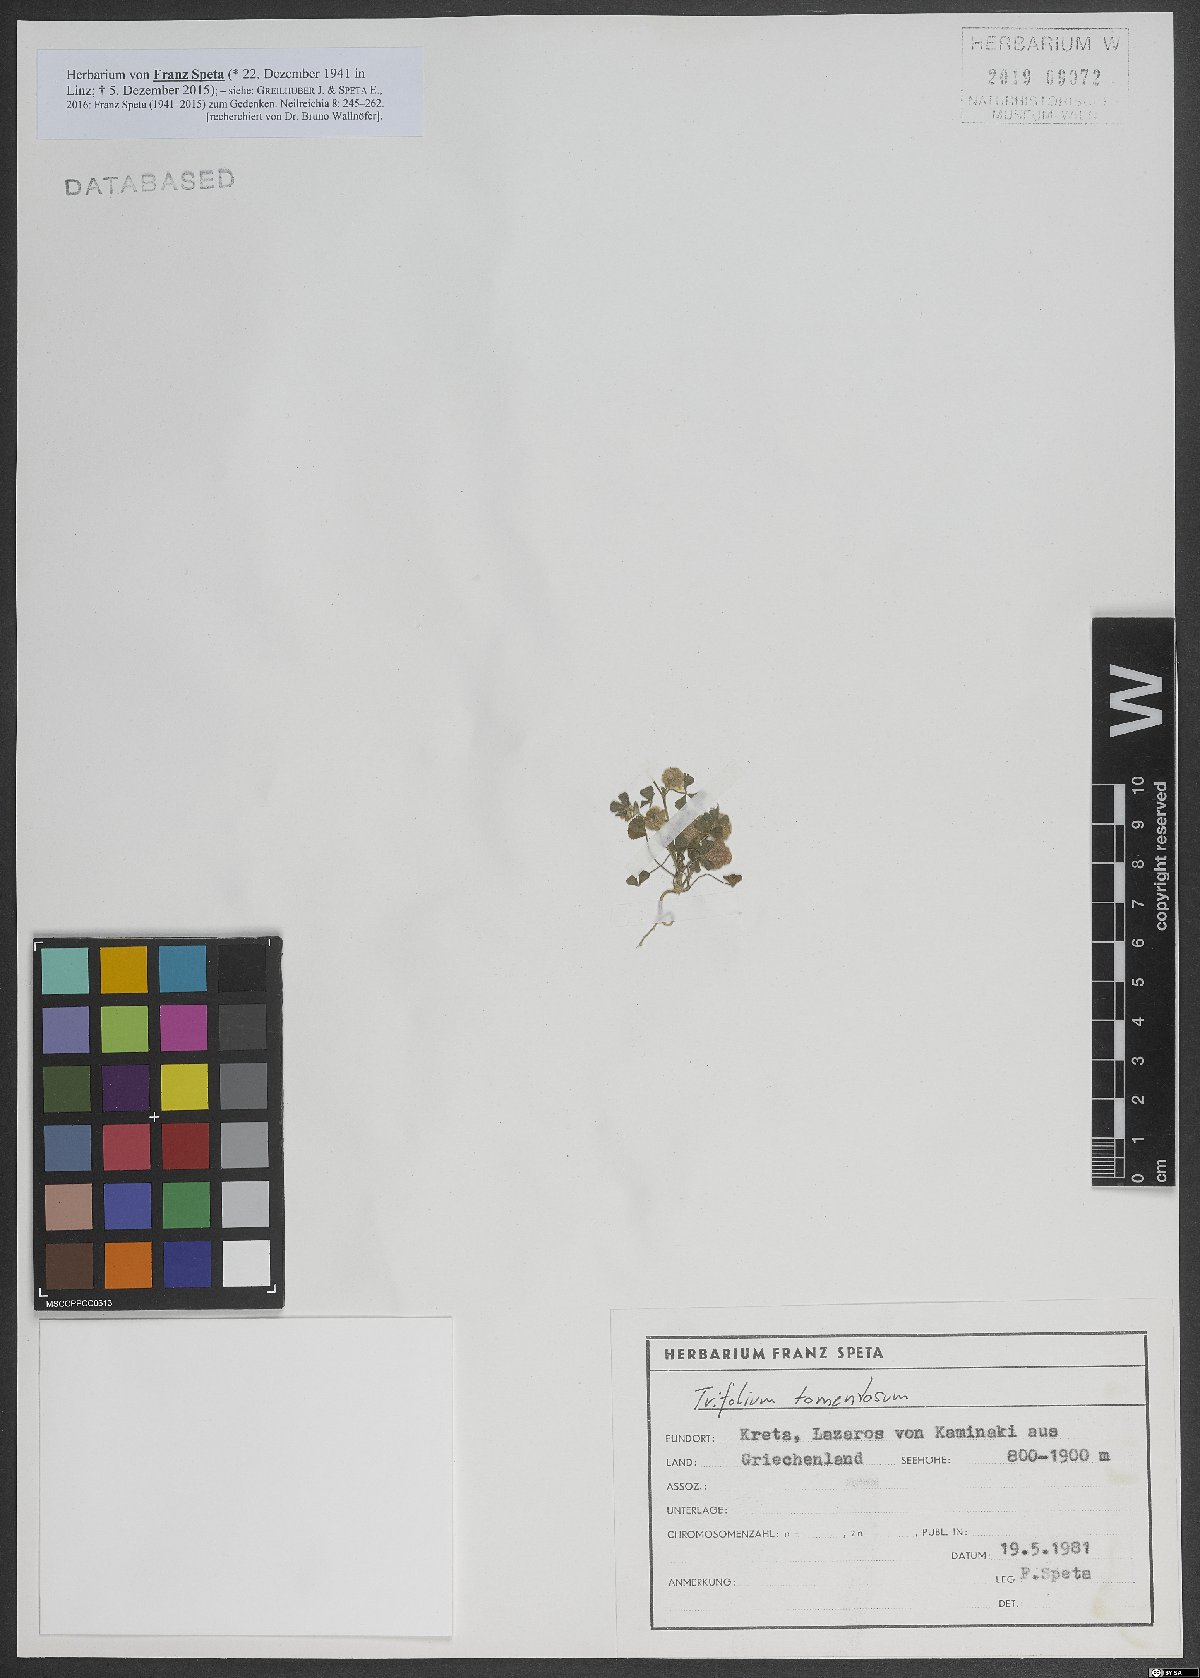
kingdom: Plantae
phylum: Tracheophyta
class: Magnoliopsida
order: Fabales
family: Fabaceae
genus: Trifolium
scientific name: Trifolium tomentosum
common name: Woolly clover
